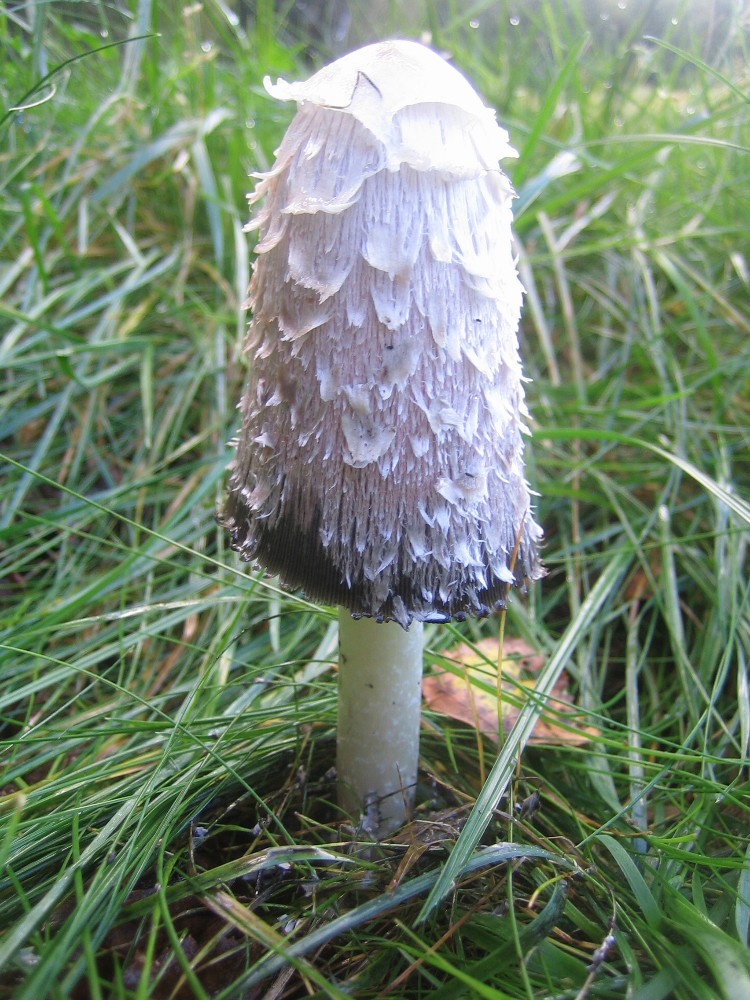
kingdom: Fungi
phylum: Basidiomycota
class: Agaricomycetes
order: Agaricales
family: Agaricaceae
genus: Coprinus
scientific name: Coprinus comatus
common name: stor parykhat
